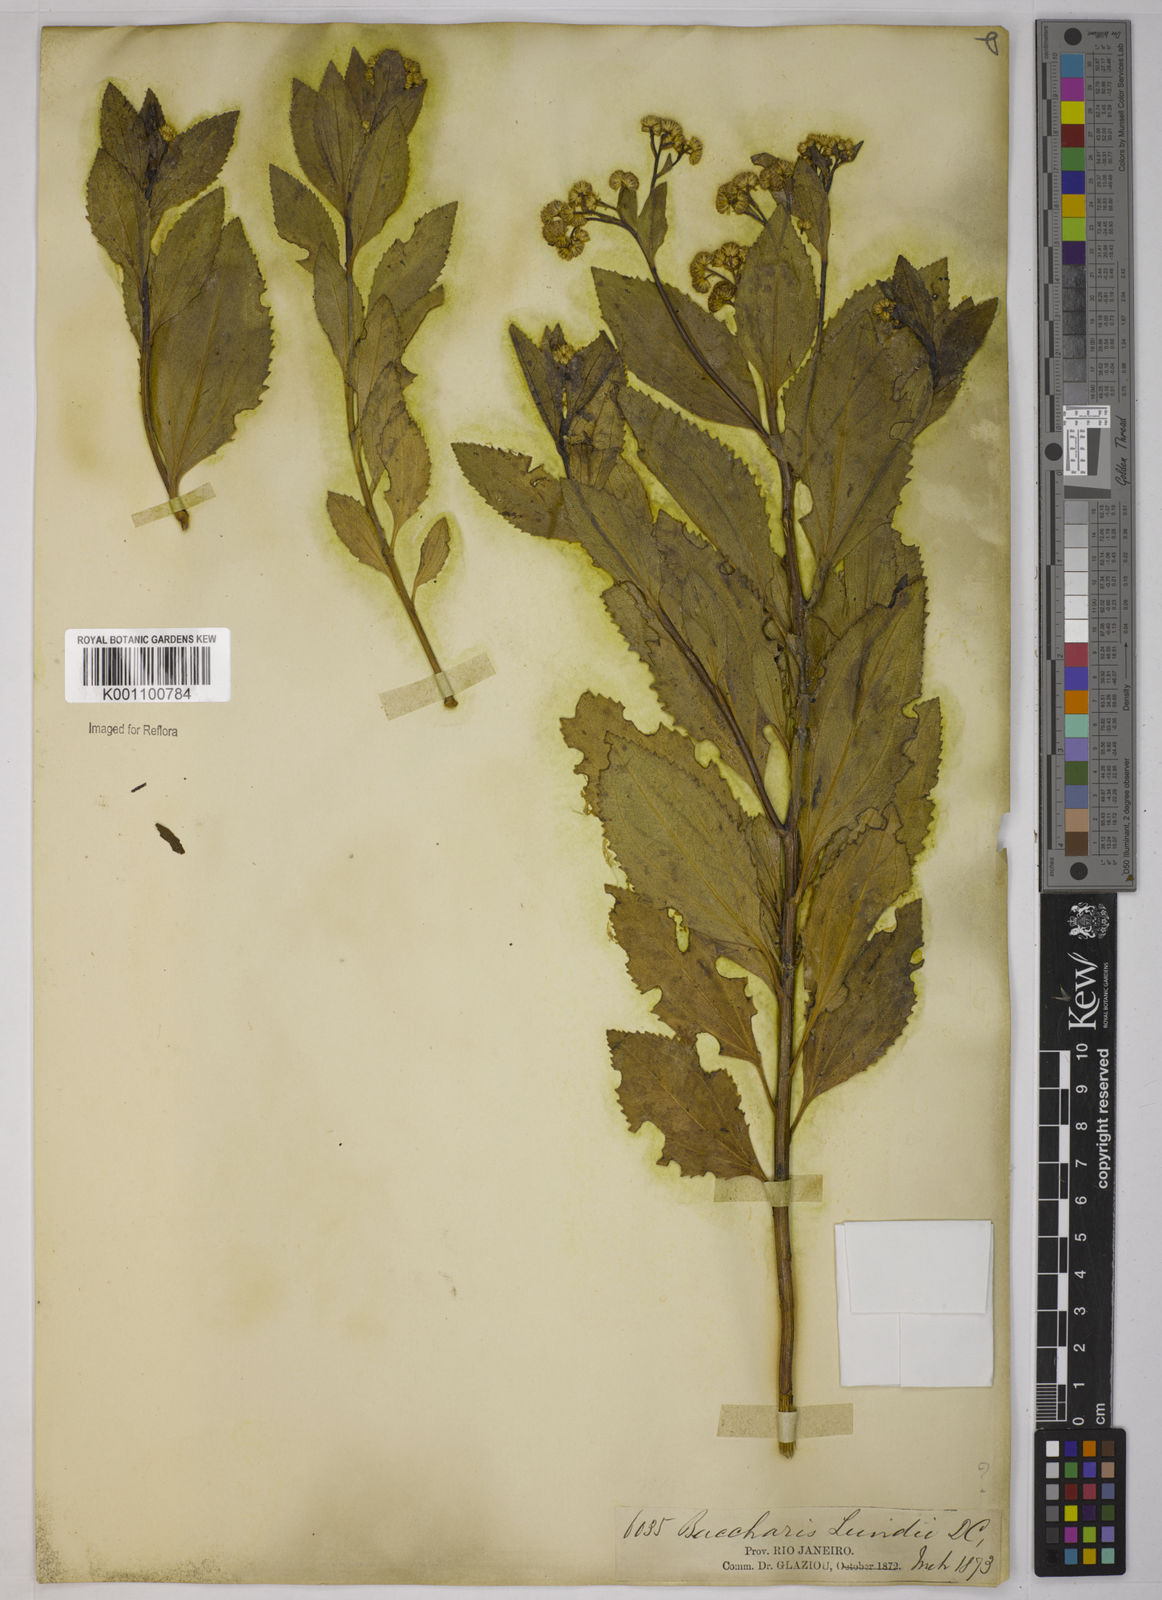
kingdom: Plantae
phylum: Tracheophyta
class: Magnoliopsida
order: Asterales
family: Asteraceae
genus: Baccharis
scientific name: Baccharis stylosa
